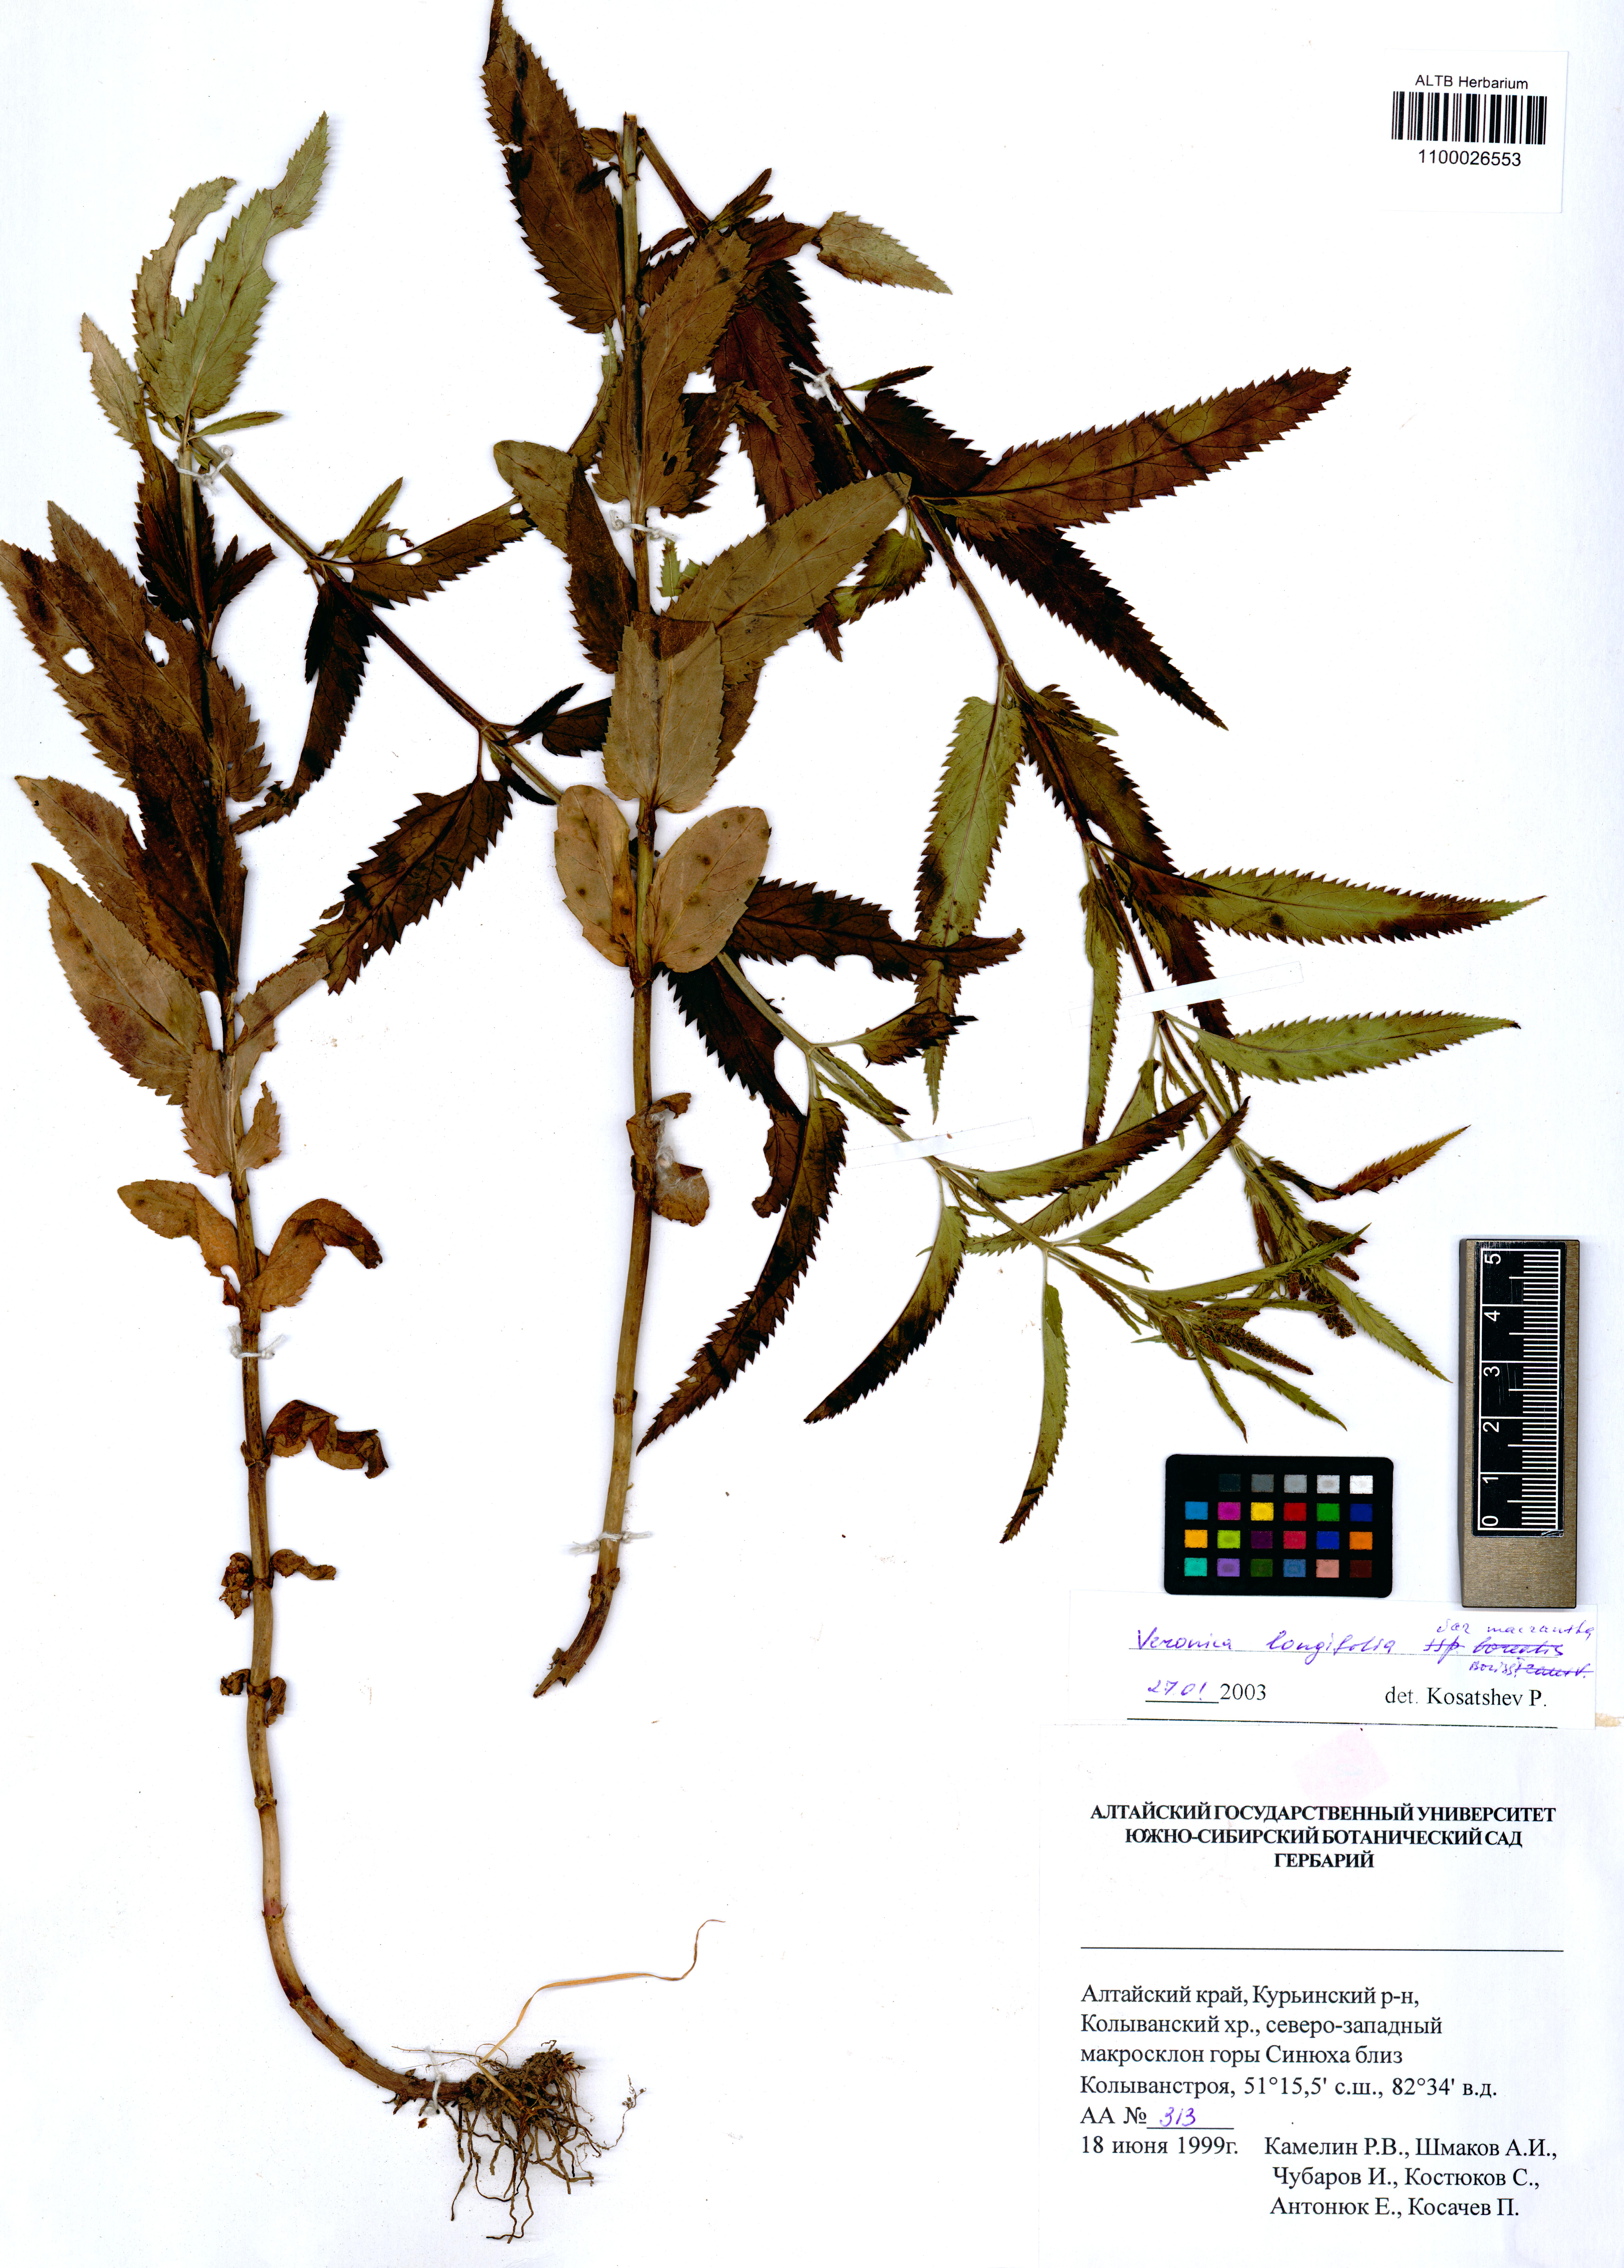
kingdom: Plantae
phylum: Tracheophyta
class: Magnoliopsida
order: Lamiales
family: Plantaginaceae
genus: Veronica
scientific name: Veronica longifolia
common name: Garden speedwell
